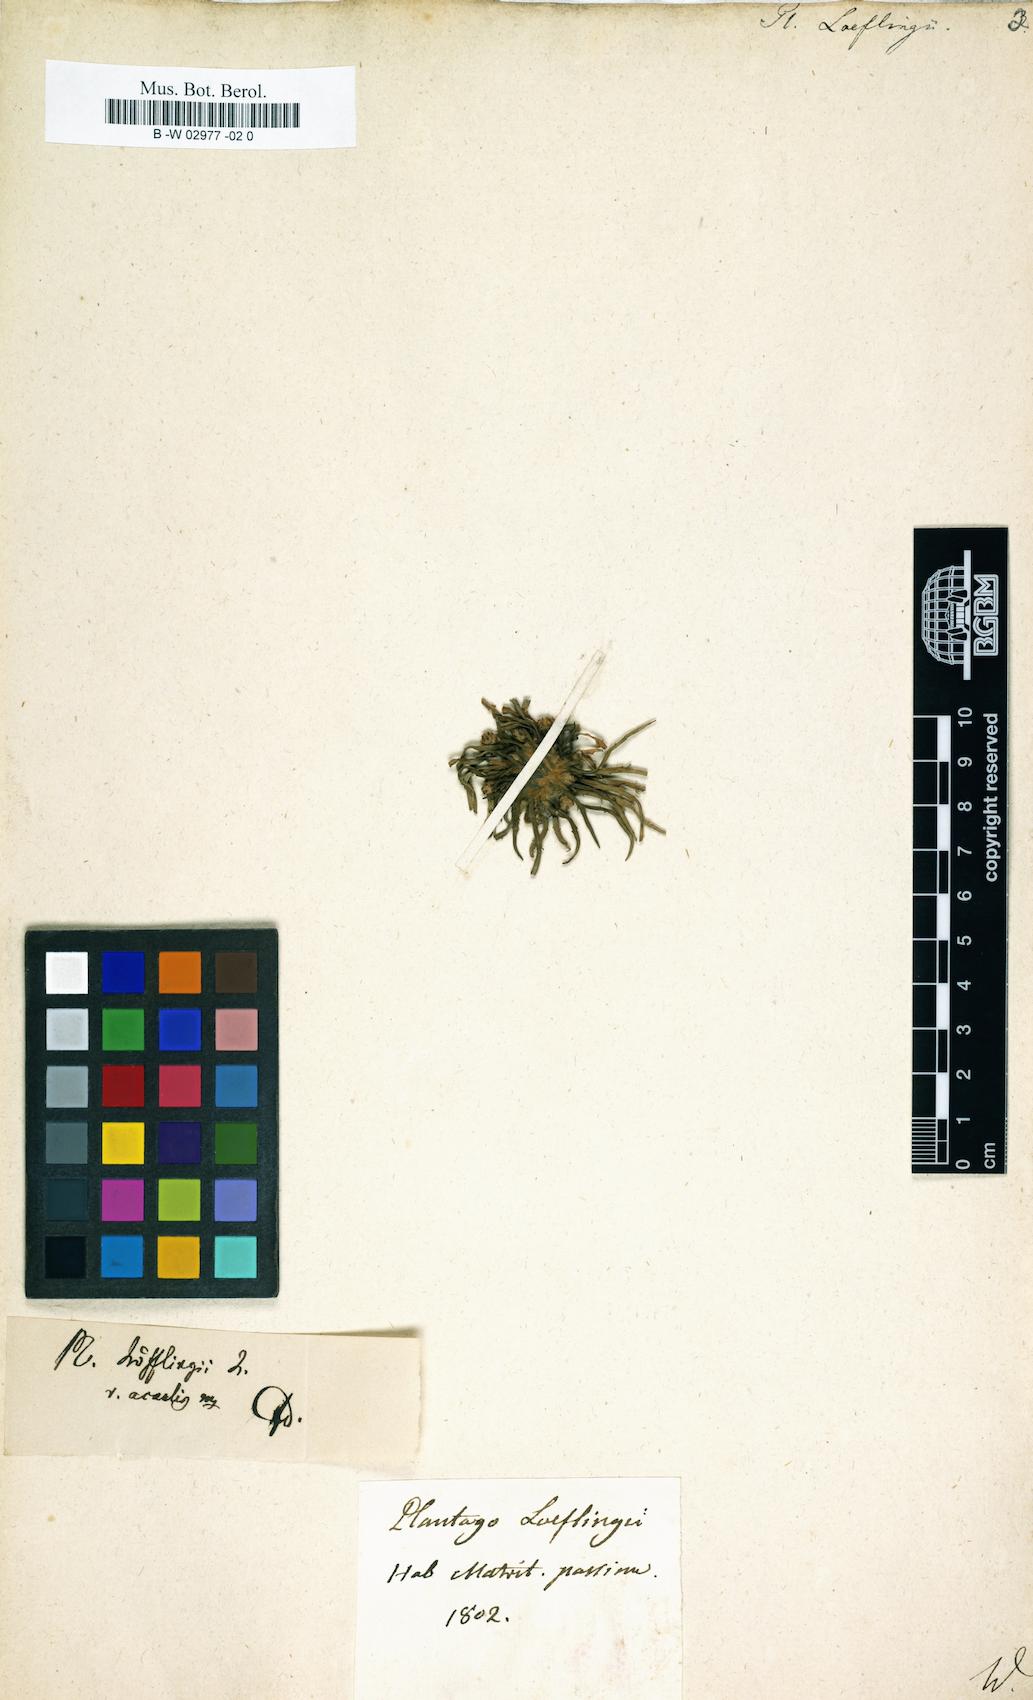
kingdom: Plantae
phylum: Tracheophyta
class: Magnoliopsida
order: Lamiales
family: Plantaginaceae
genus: Plantago
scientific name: Plantago loeflingii
